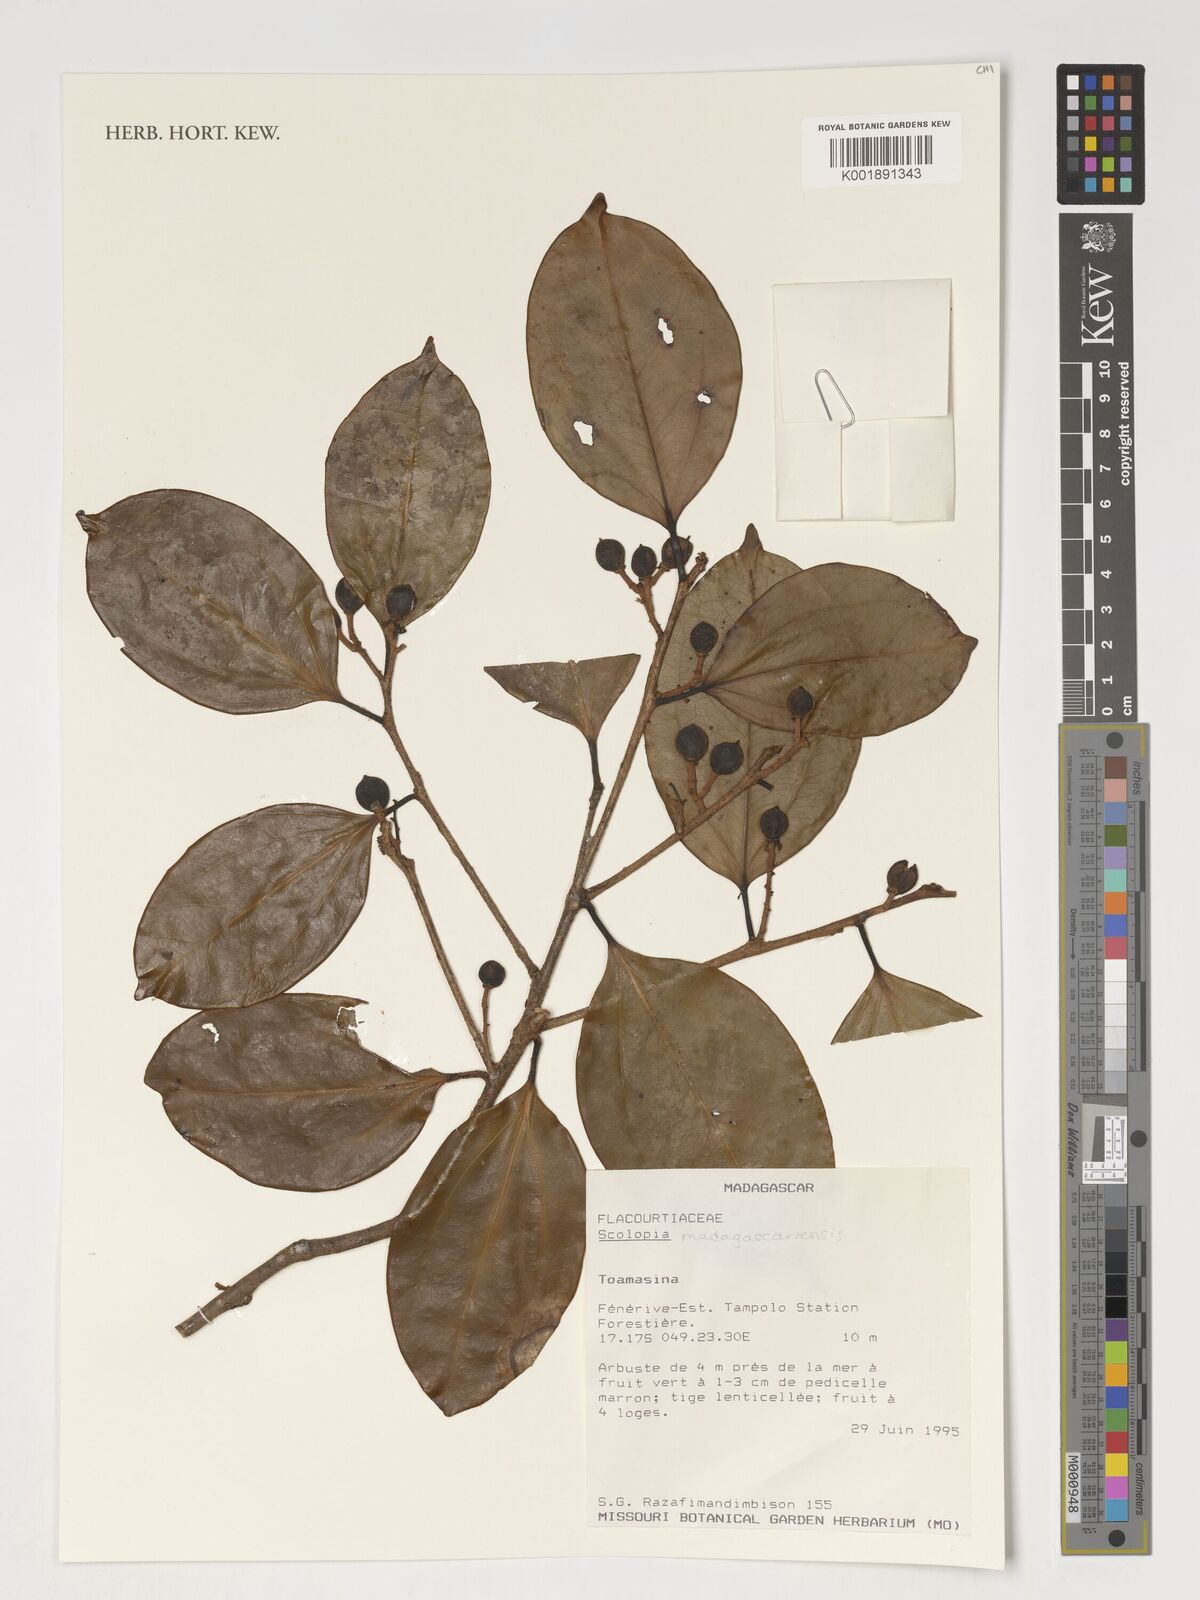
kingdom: Plantae
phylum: Tracheophyta
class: Magnoliopsida
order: Malpighiales
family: Salicaceae
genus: Scolopia
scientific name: Scolopia madagascariensis
